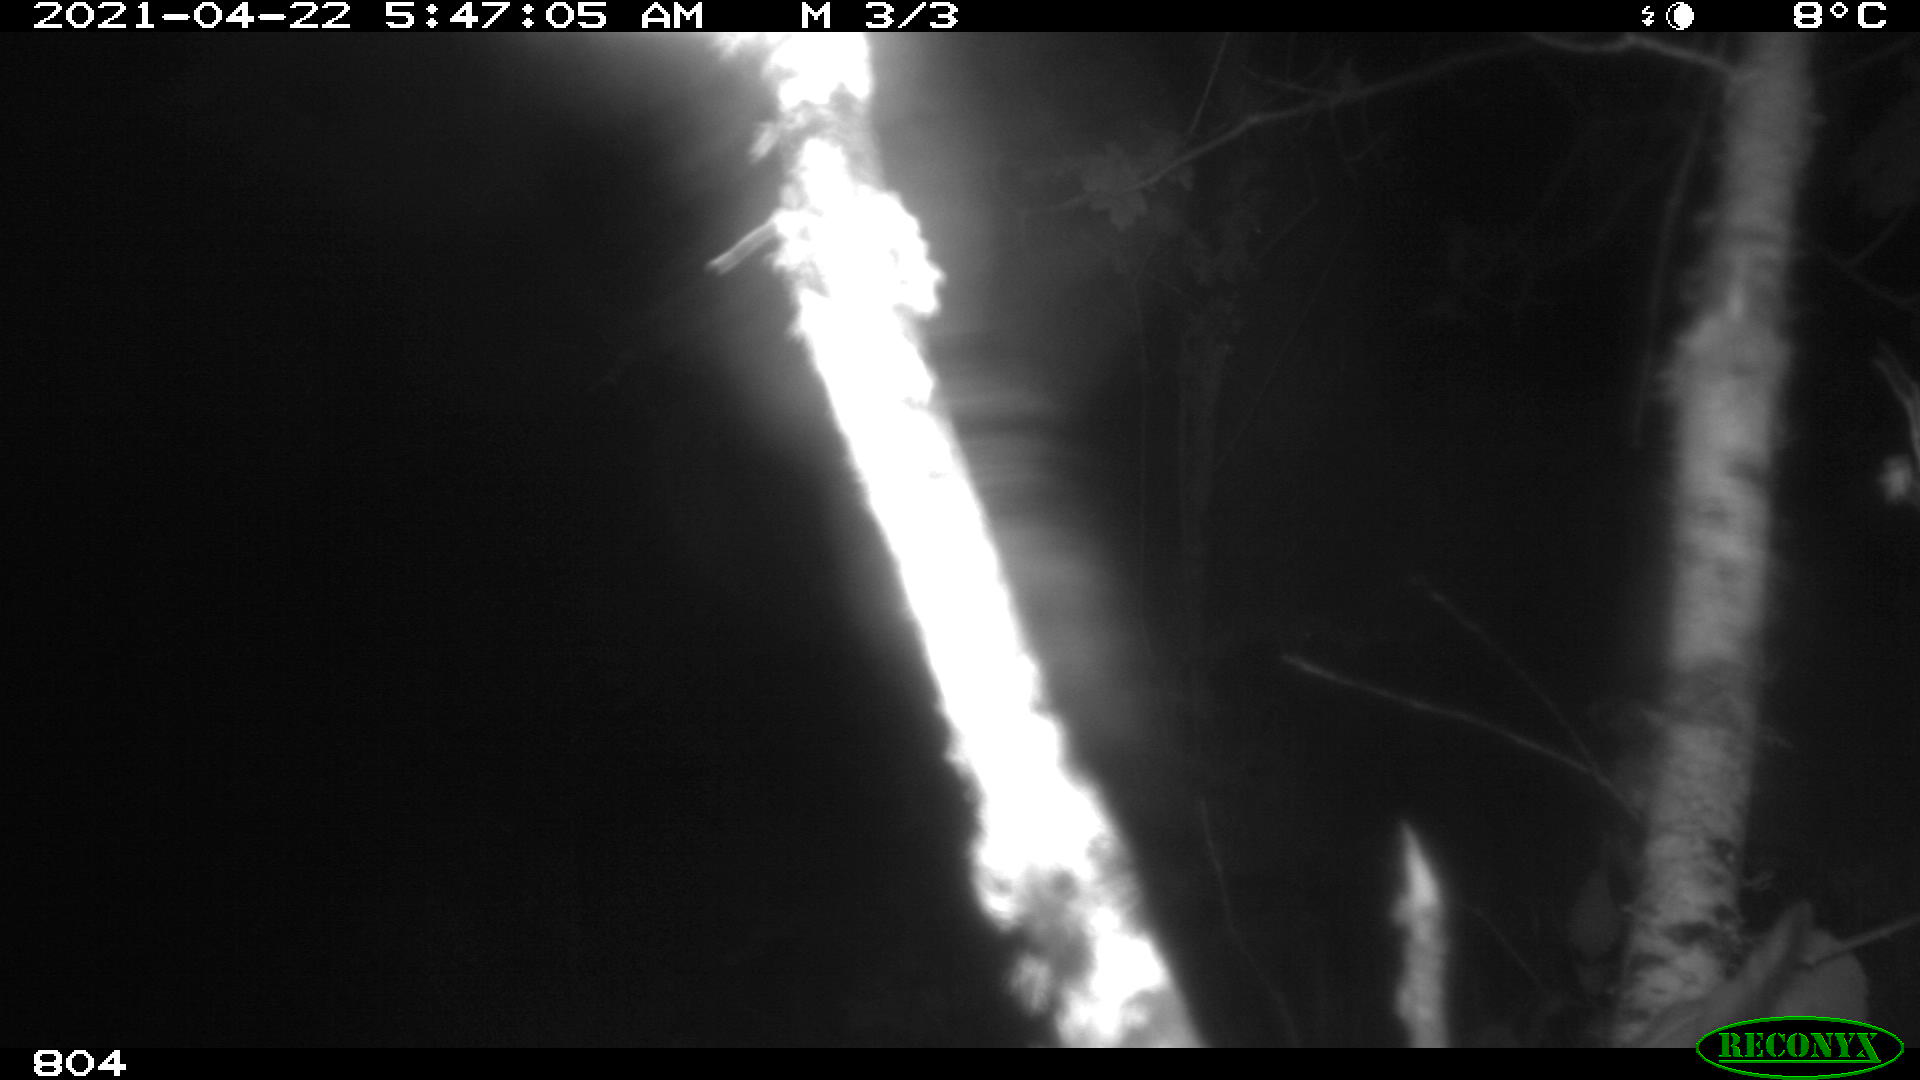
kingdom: Animalia
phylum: Chordata
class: Mammalia
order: Artiodactyla
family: Cervidae
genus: Capreolus
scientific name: Capreolus capreolus
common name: Western roe deer
